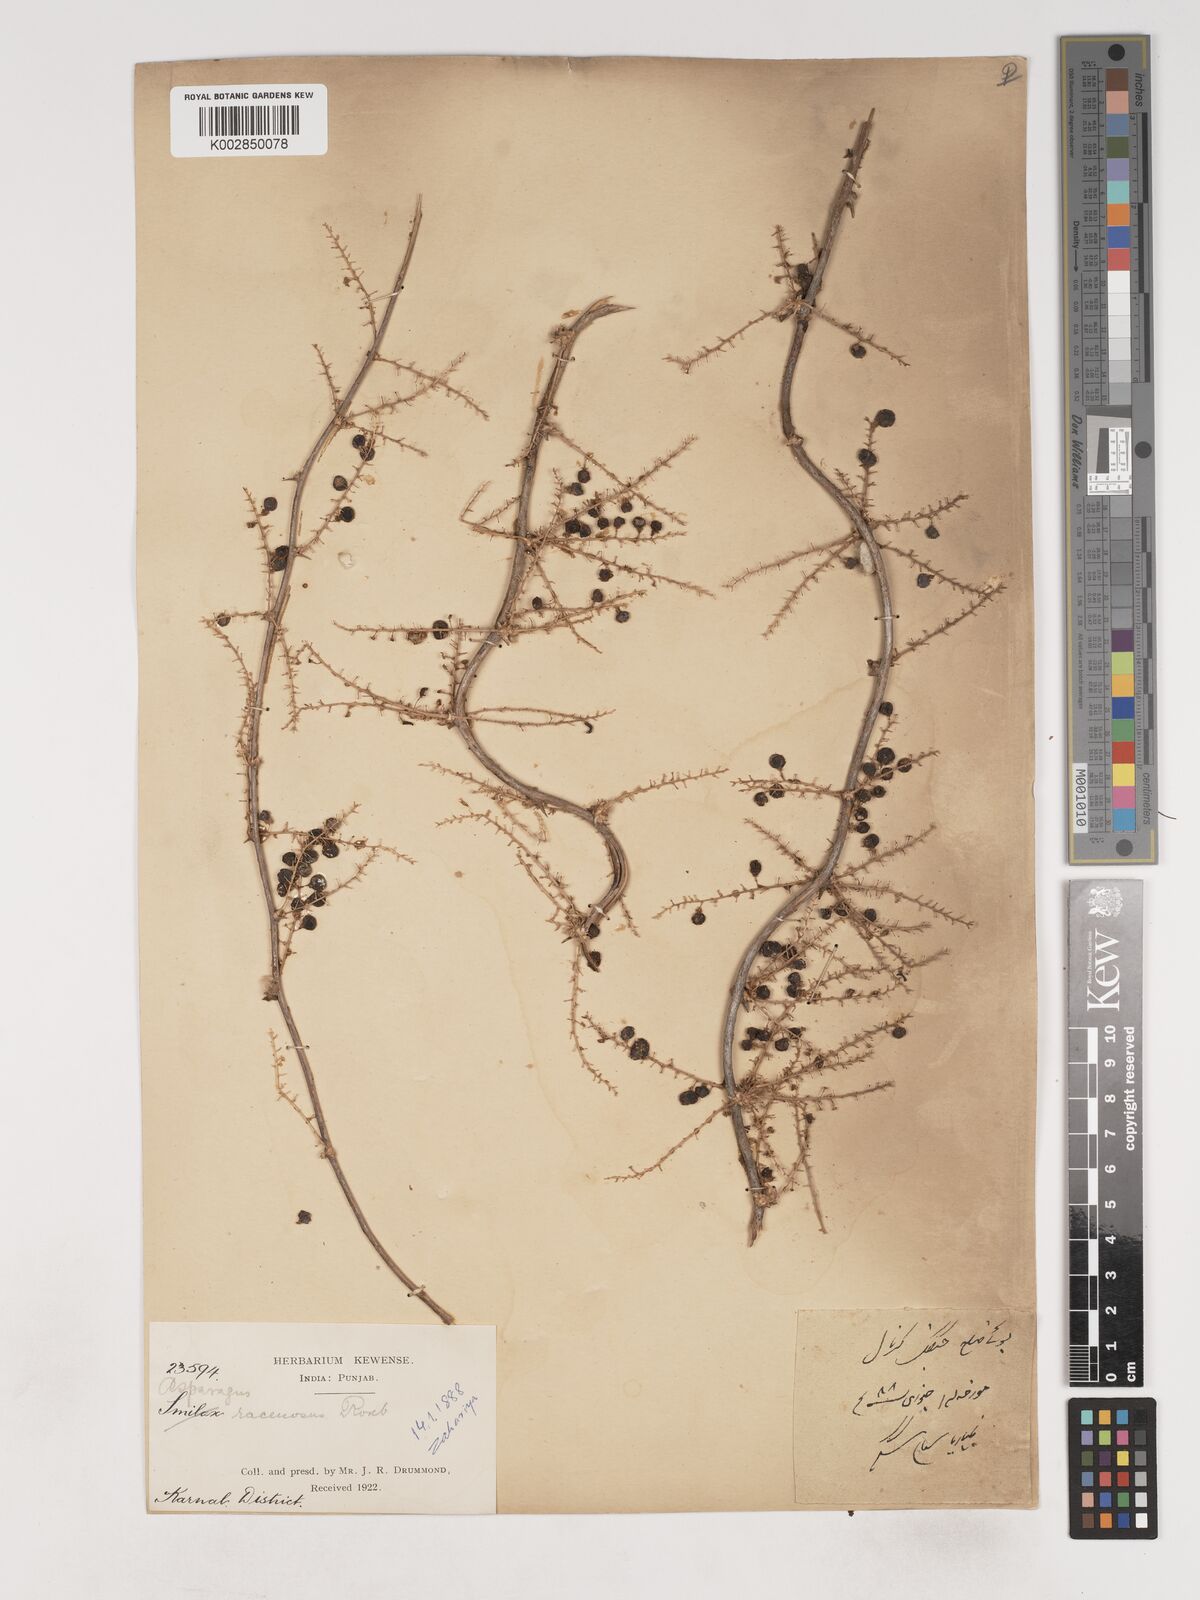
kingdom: Plantae
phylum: Tracheophyta
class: Liliopsida
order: Asparagales
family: Asparagaceae
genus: Asparagus
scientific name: Asparagus racemosus
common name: Asparagus-fern
